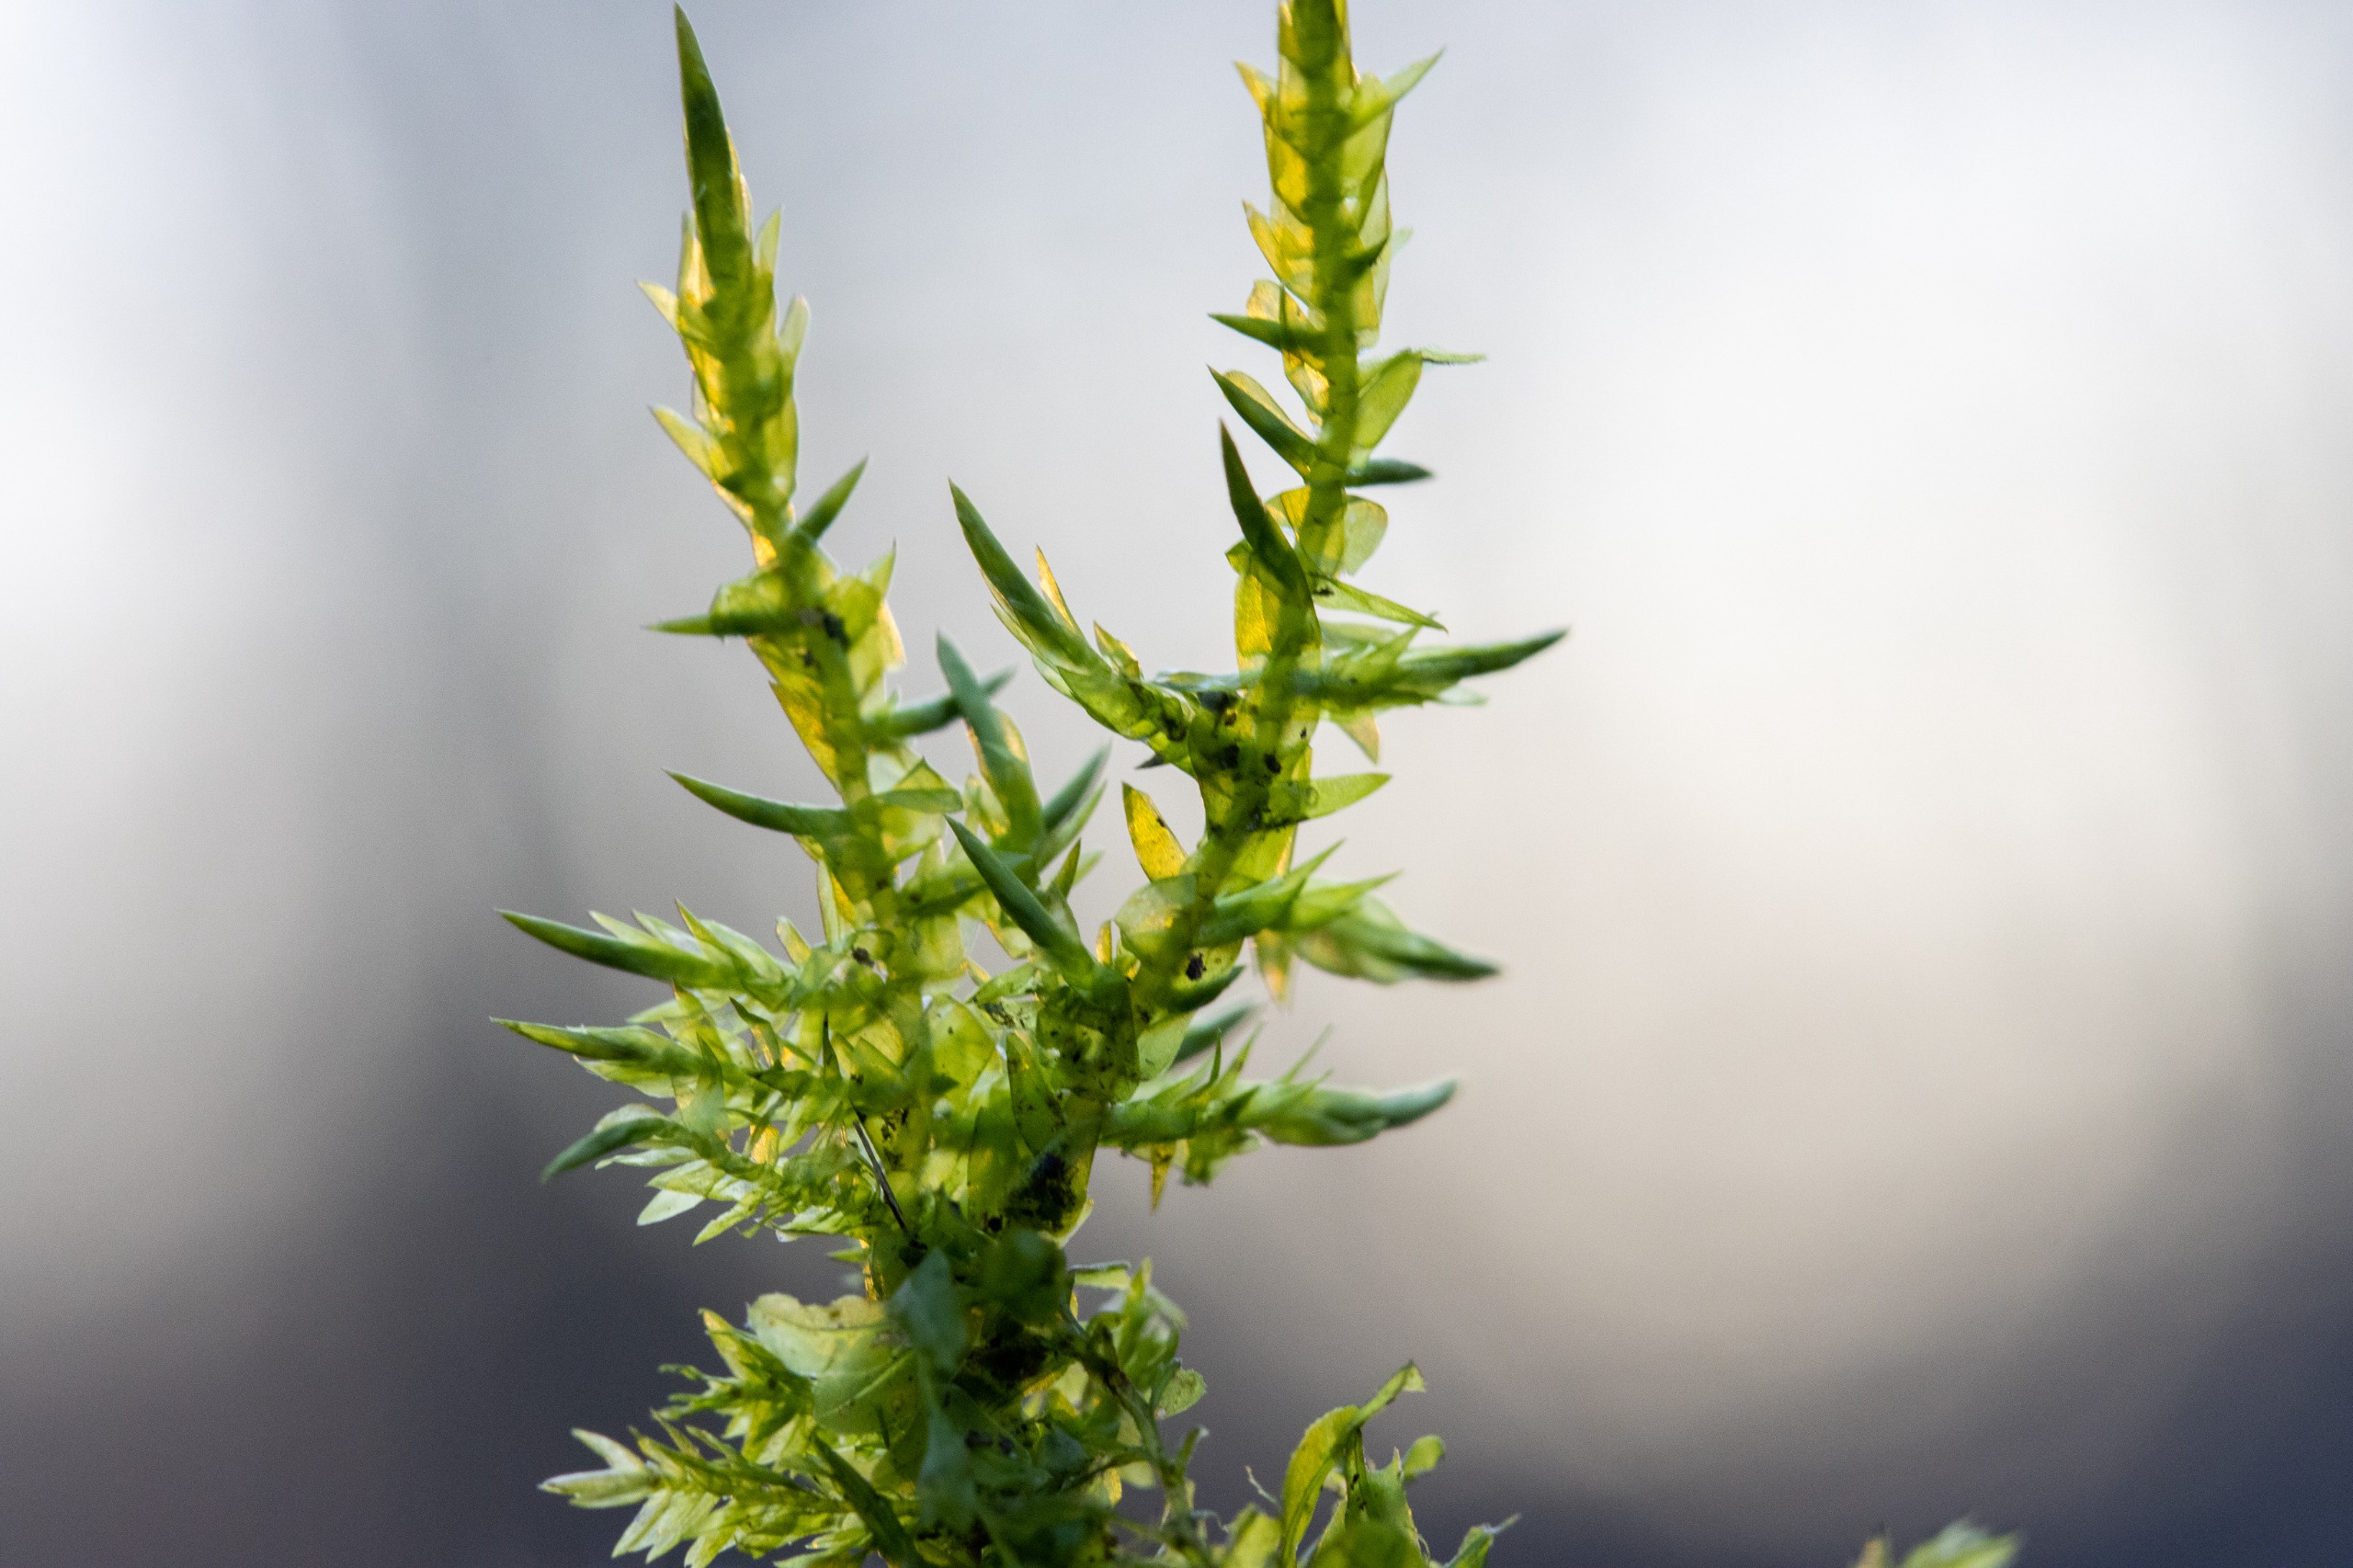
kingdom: Plantae
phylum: Bryophyta
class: Bryopsida
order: Hypnales
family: Pylaisiaceae
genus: Calliergonella
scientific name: Calliergonella cuspidata
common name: Spids spydmos
